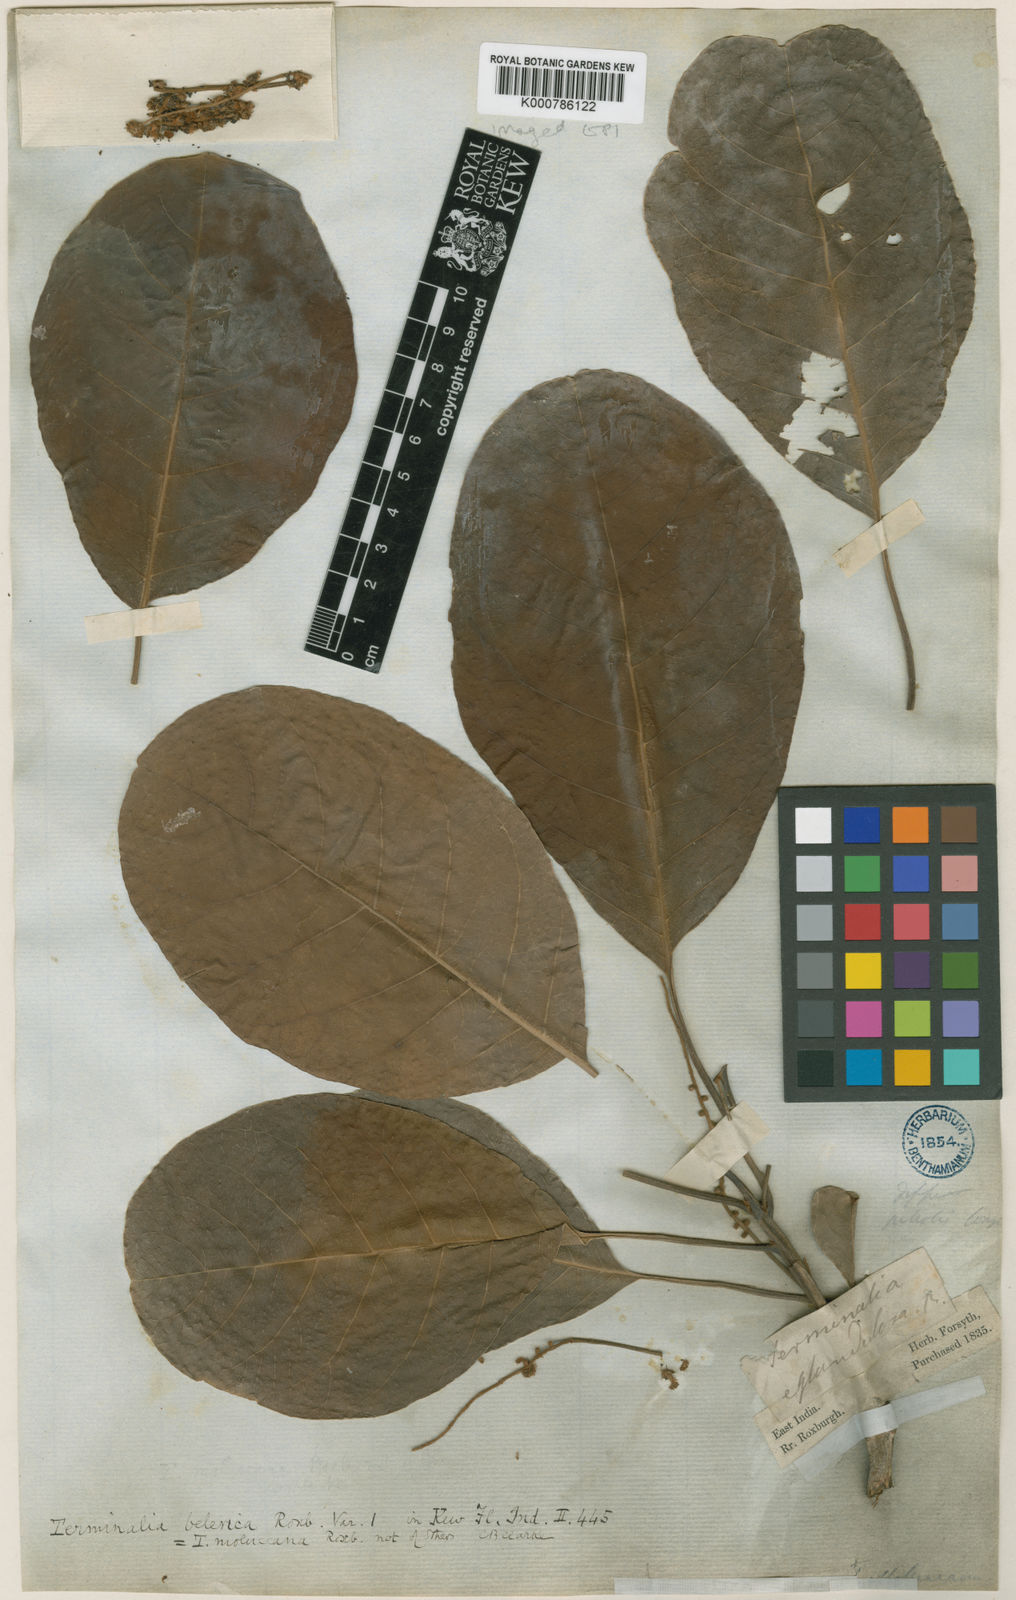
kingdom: Plantae
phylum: Tracheophyta
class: Magnoliopsida
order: Myrtales
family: Combretaceae
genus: Terminalia
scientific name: Terminalia bellirica
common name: Beleric myrobalan
